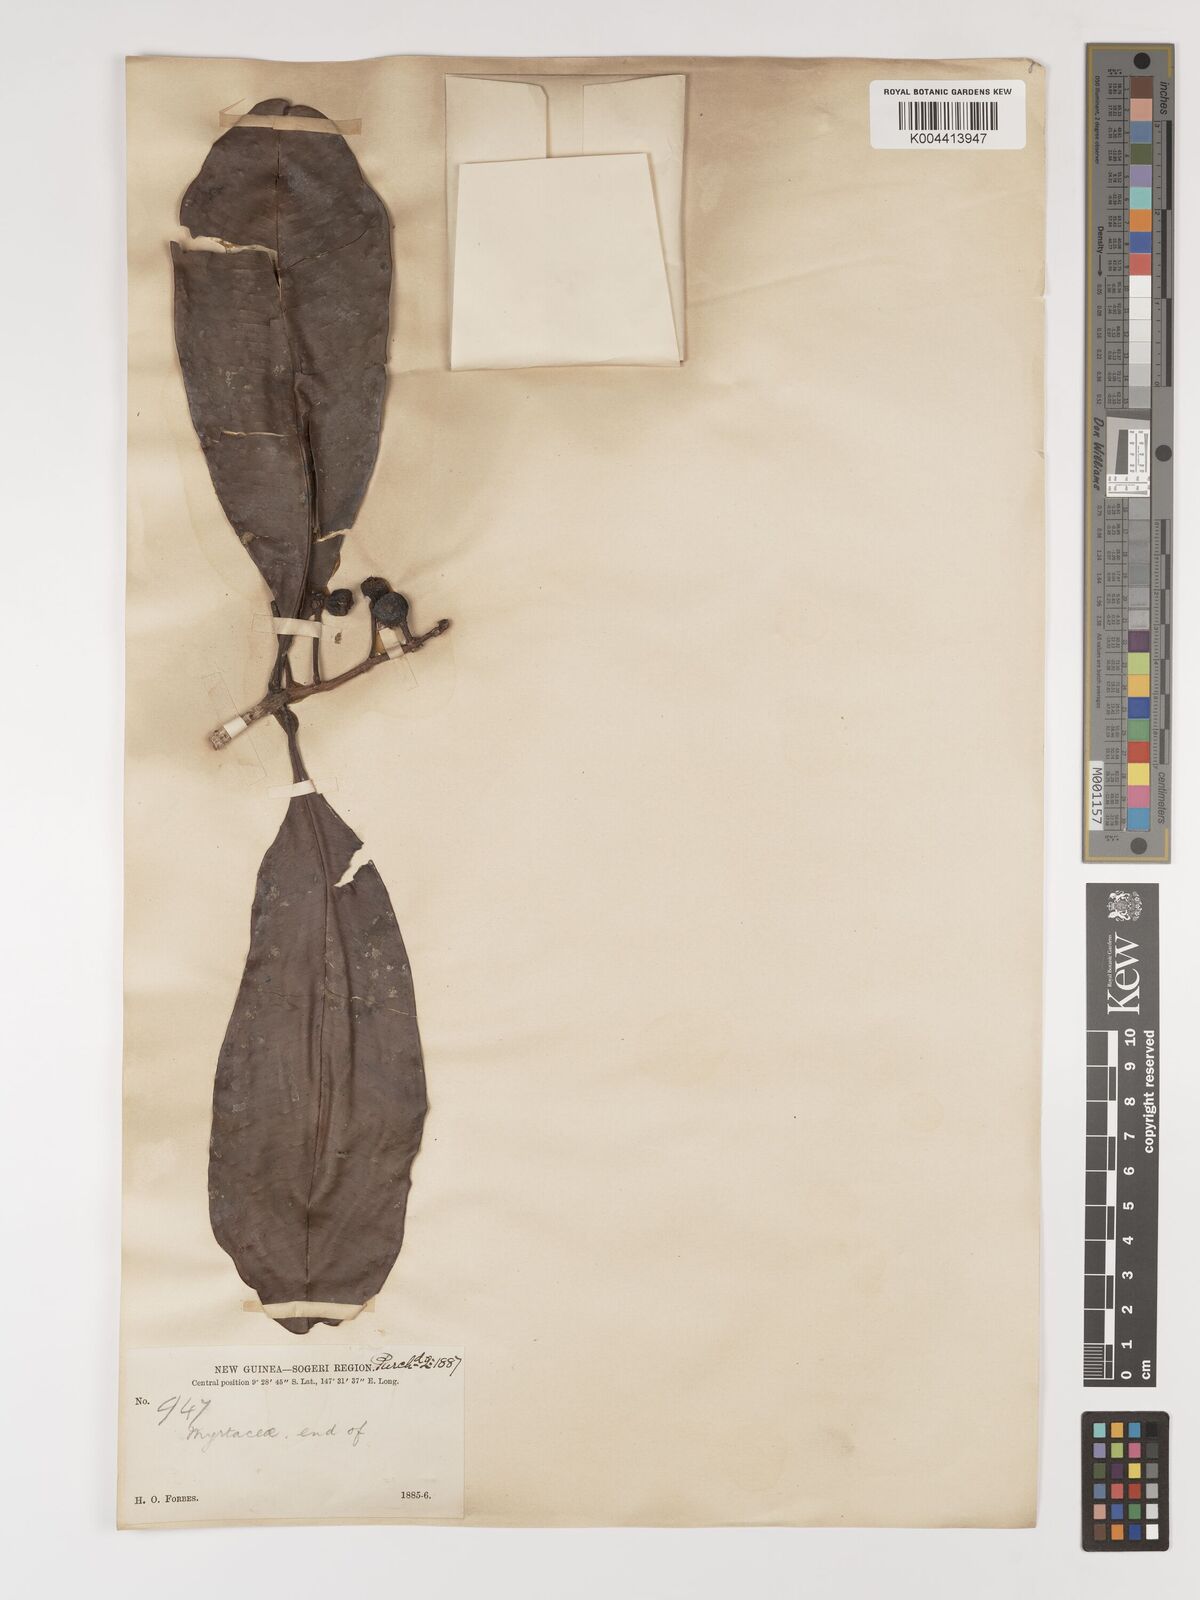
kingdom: Plantae
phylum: Tracheophyta
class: Magnoliopsida
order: Myrtales
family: Myrtaceae
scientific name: Myrtaceae
